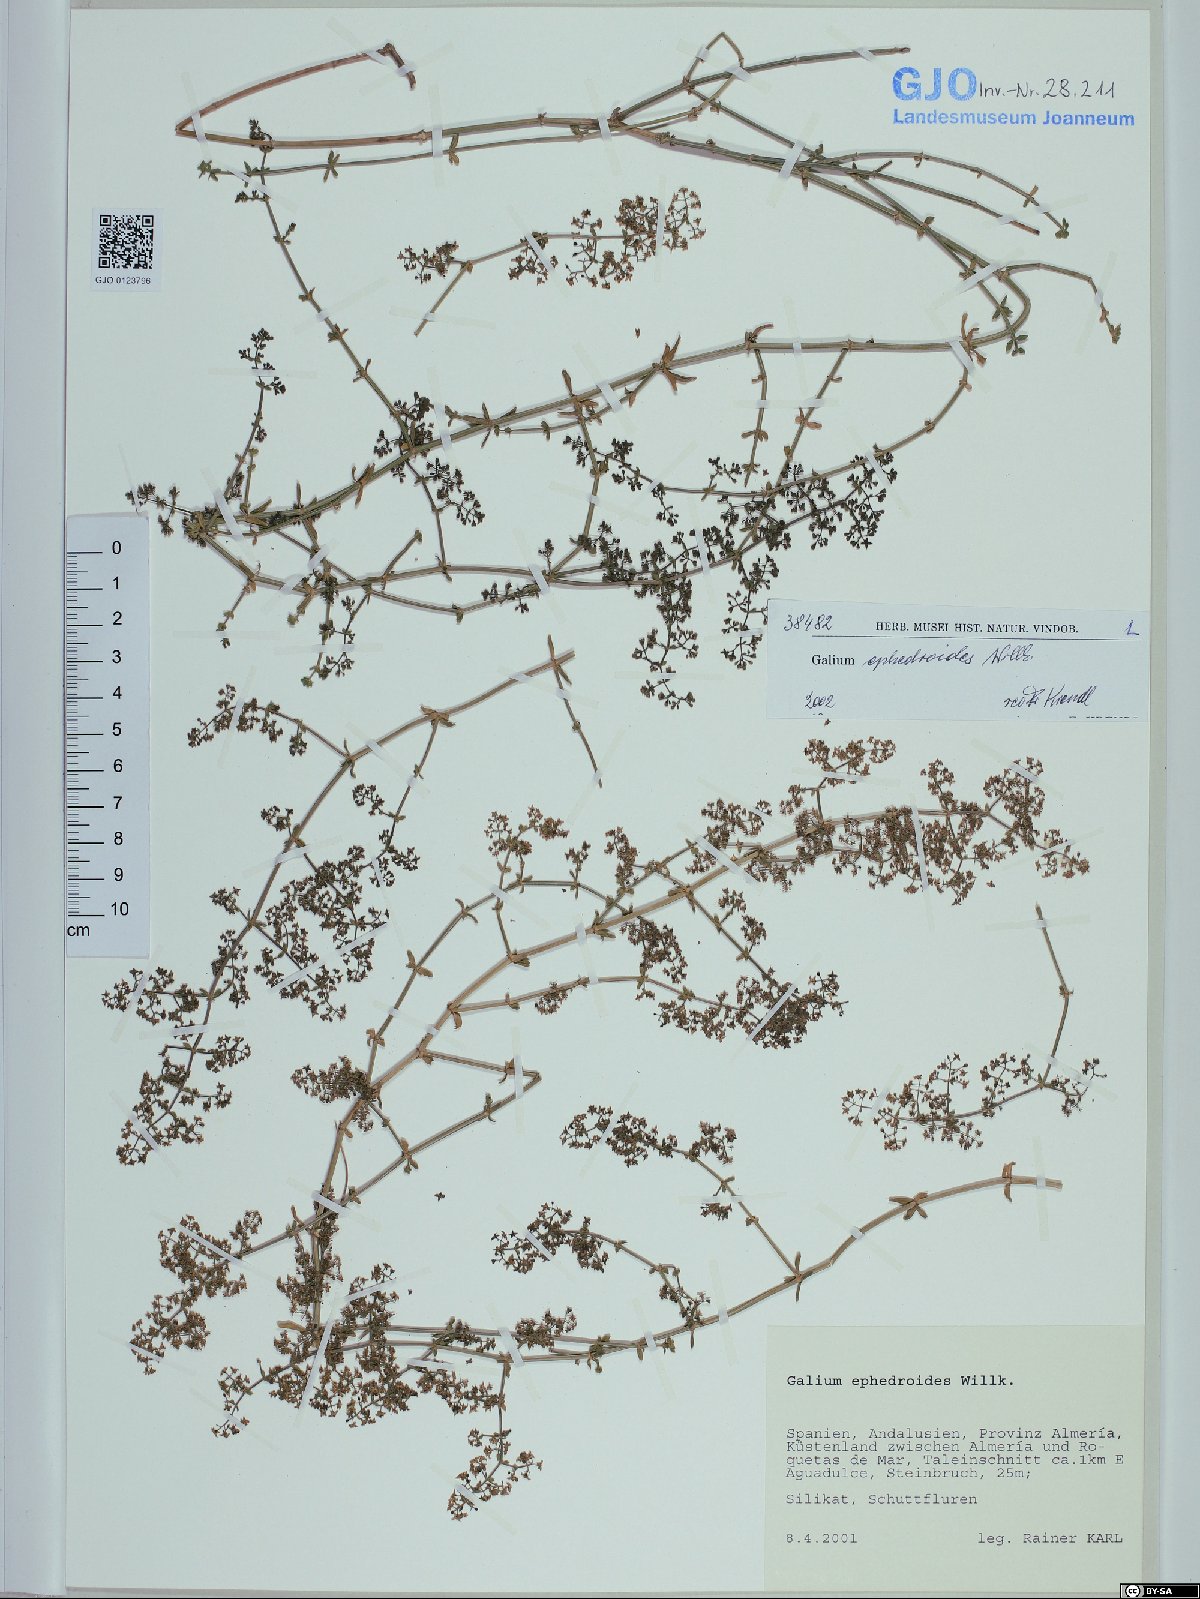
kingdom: Plantae
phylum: Tracheophyta
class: Magnoliopsida
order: Gentianales
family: Rubiaceae
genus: Galium
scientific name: Galium ephedroides
